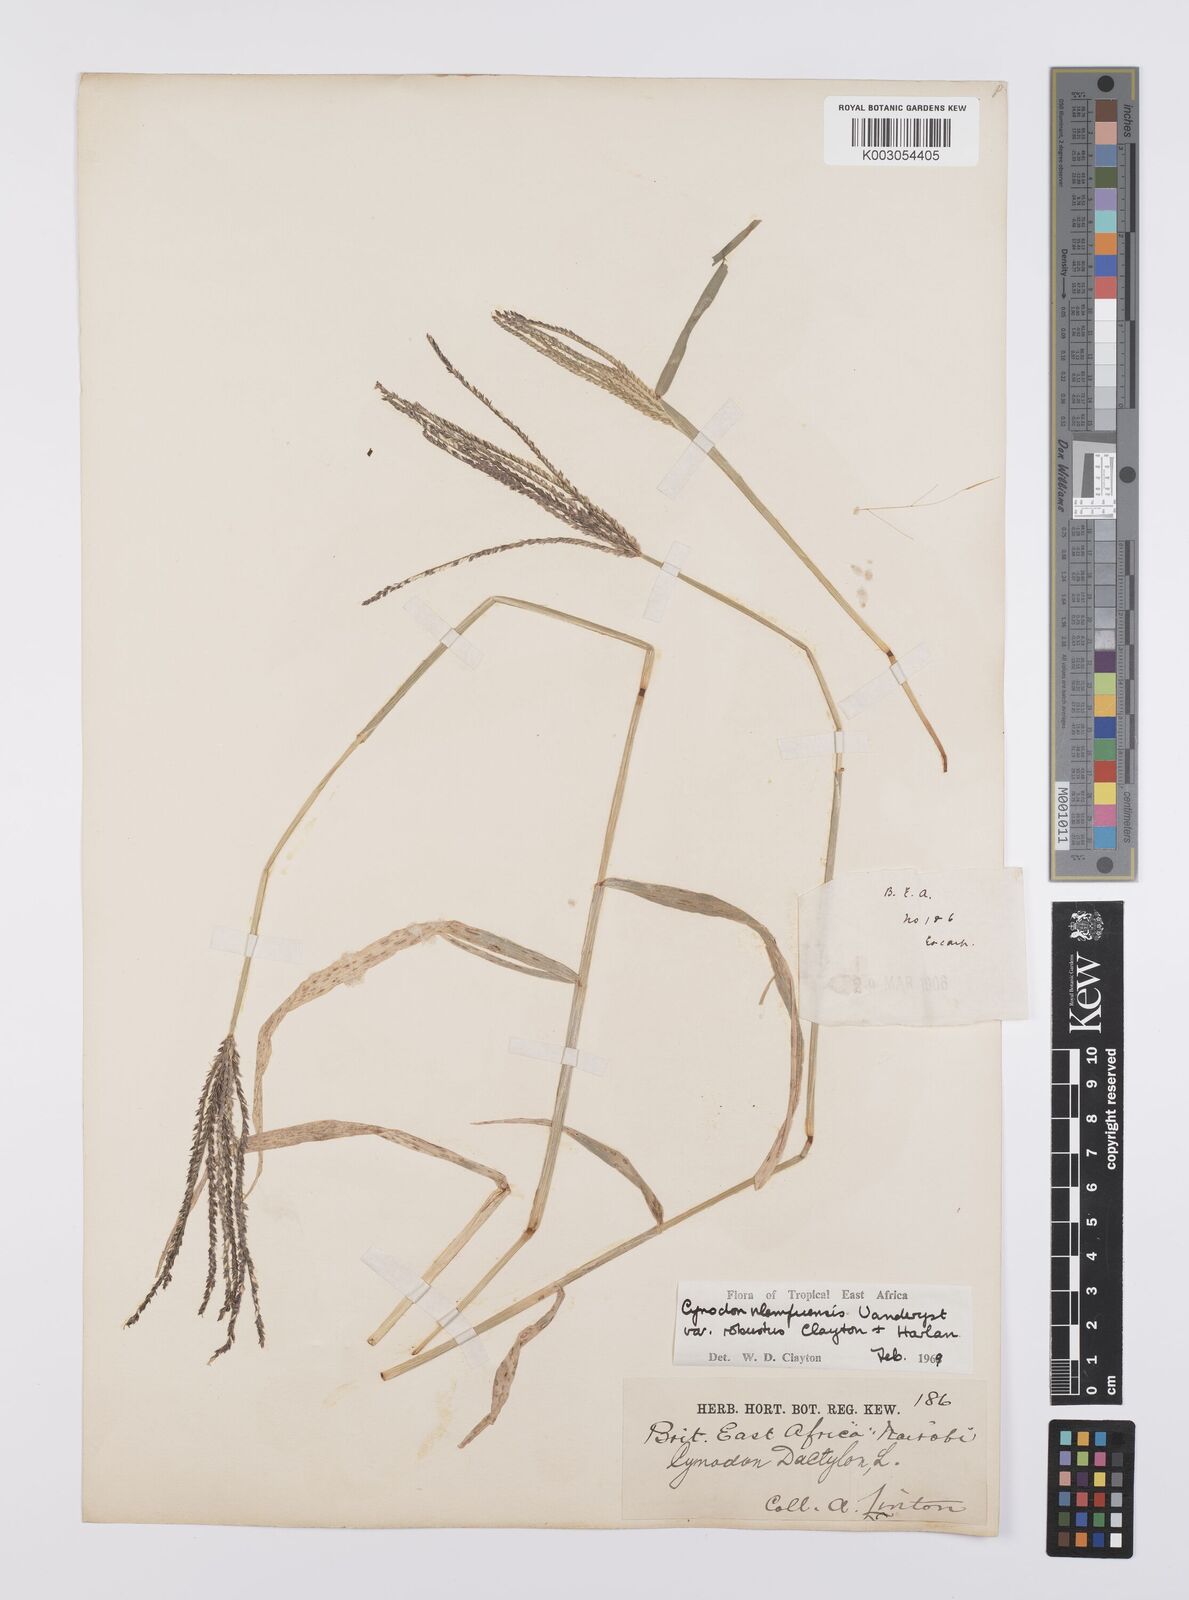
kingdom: Plantae
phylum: Tracheophyta
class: Liliopsida
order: Poales
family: Poaceae
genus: Cynodon
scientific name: Cynodon nlemfuensis
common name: African bermudagrass
